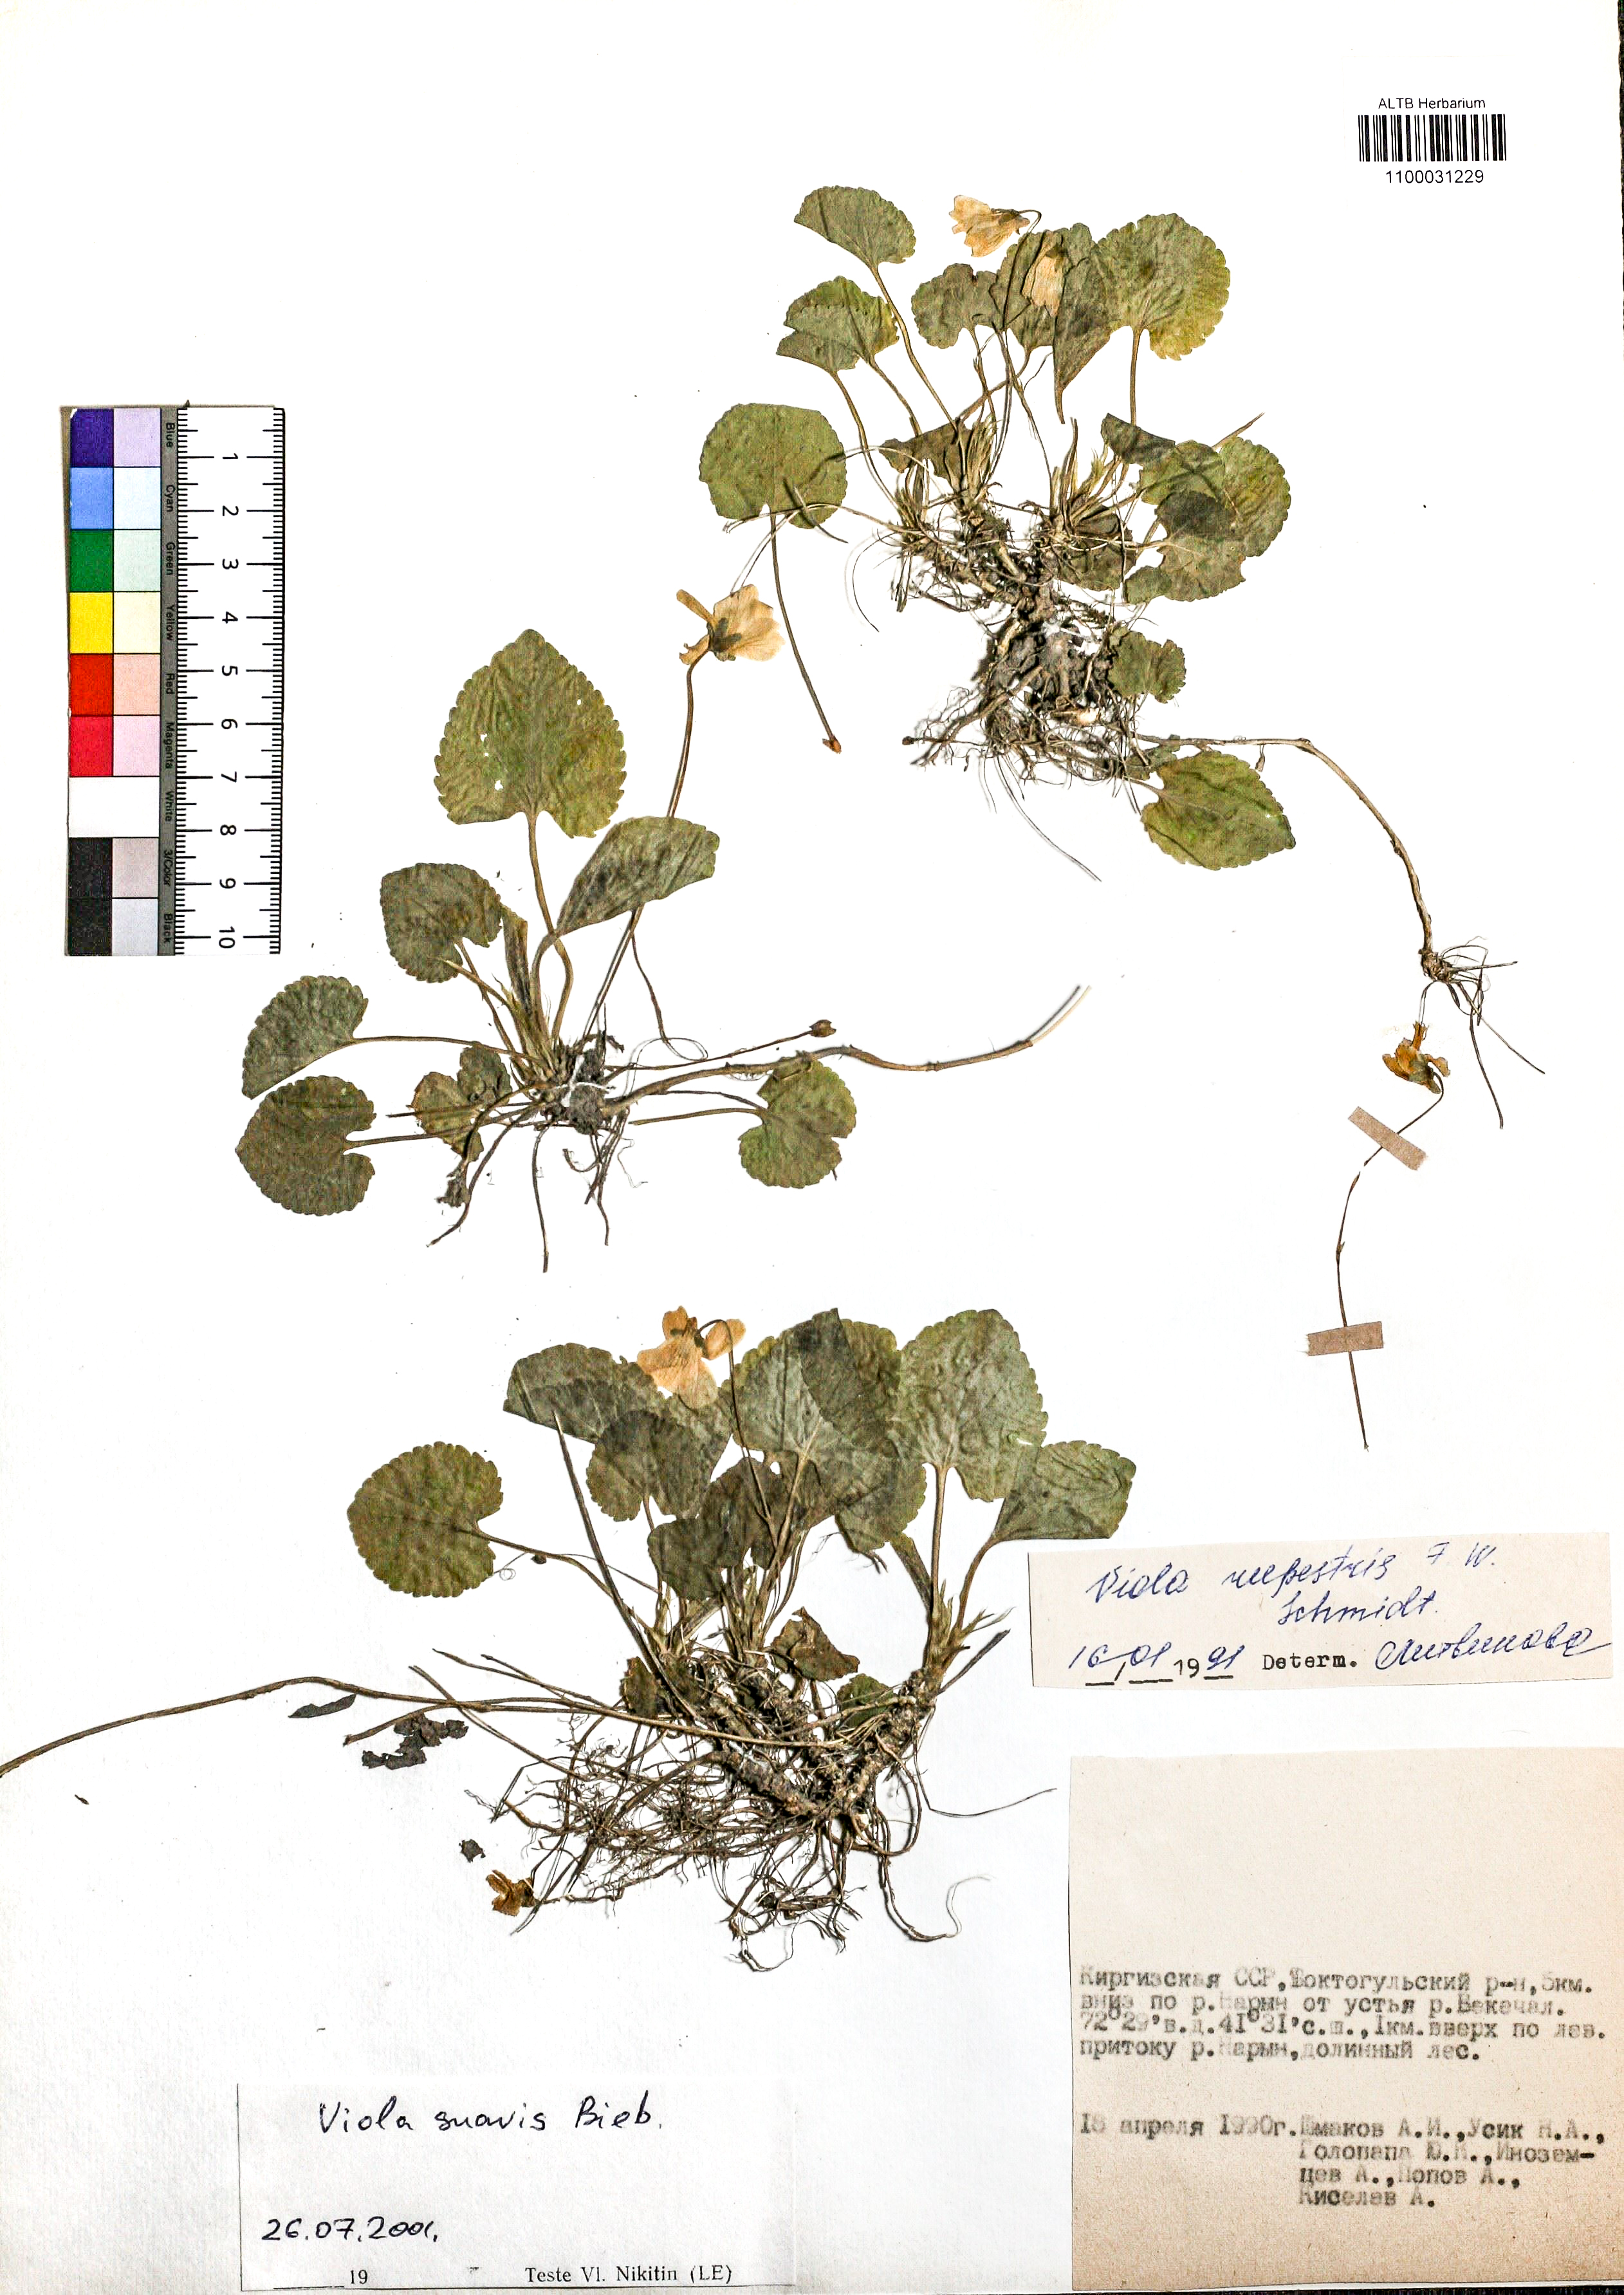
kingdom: Plantae
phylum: Tracheophyta
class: Magnoliopsida
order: Malpighiales
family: Violaceae
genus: Viola
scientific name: Viola suavis
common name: Russian violet
